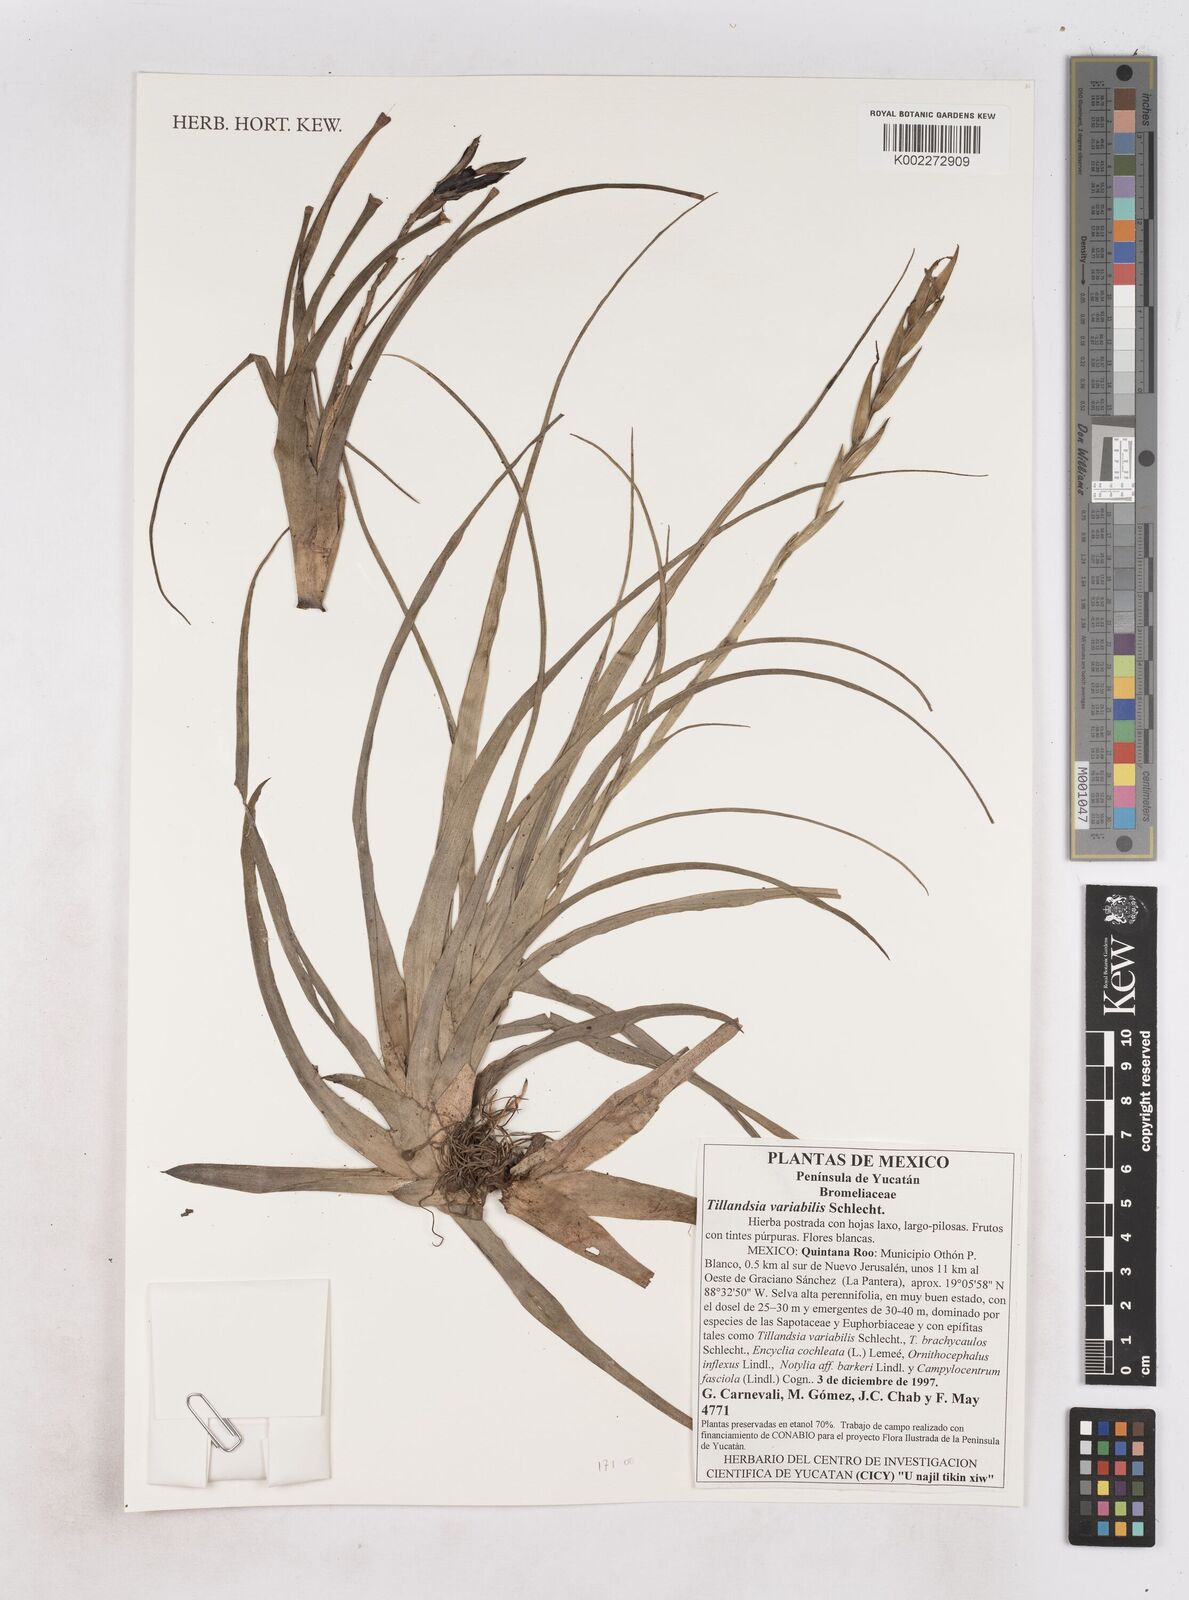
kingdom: Plantae
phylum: Tracheophyta
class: Liliopsida
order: Poales
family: Bromeliaceae
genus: Tillandsia
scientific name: Tillandsia variabilis
